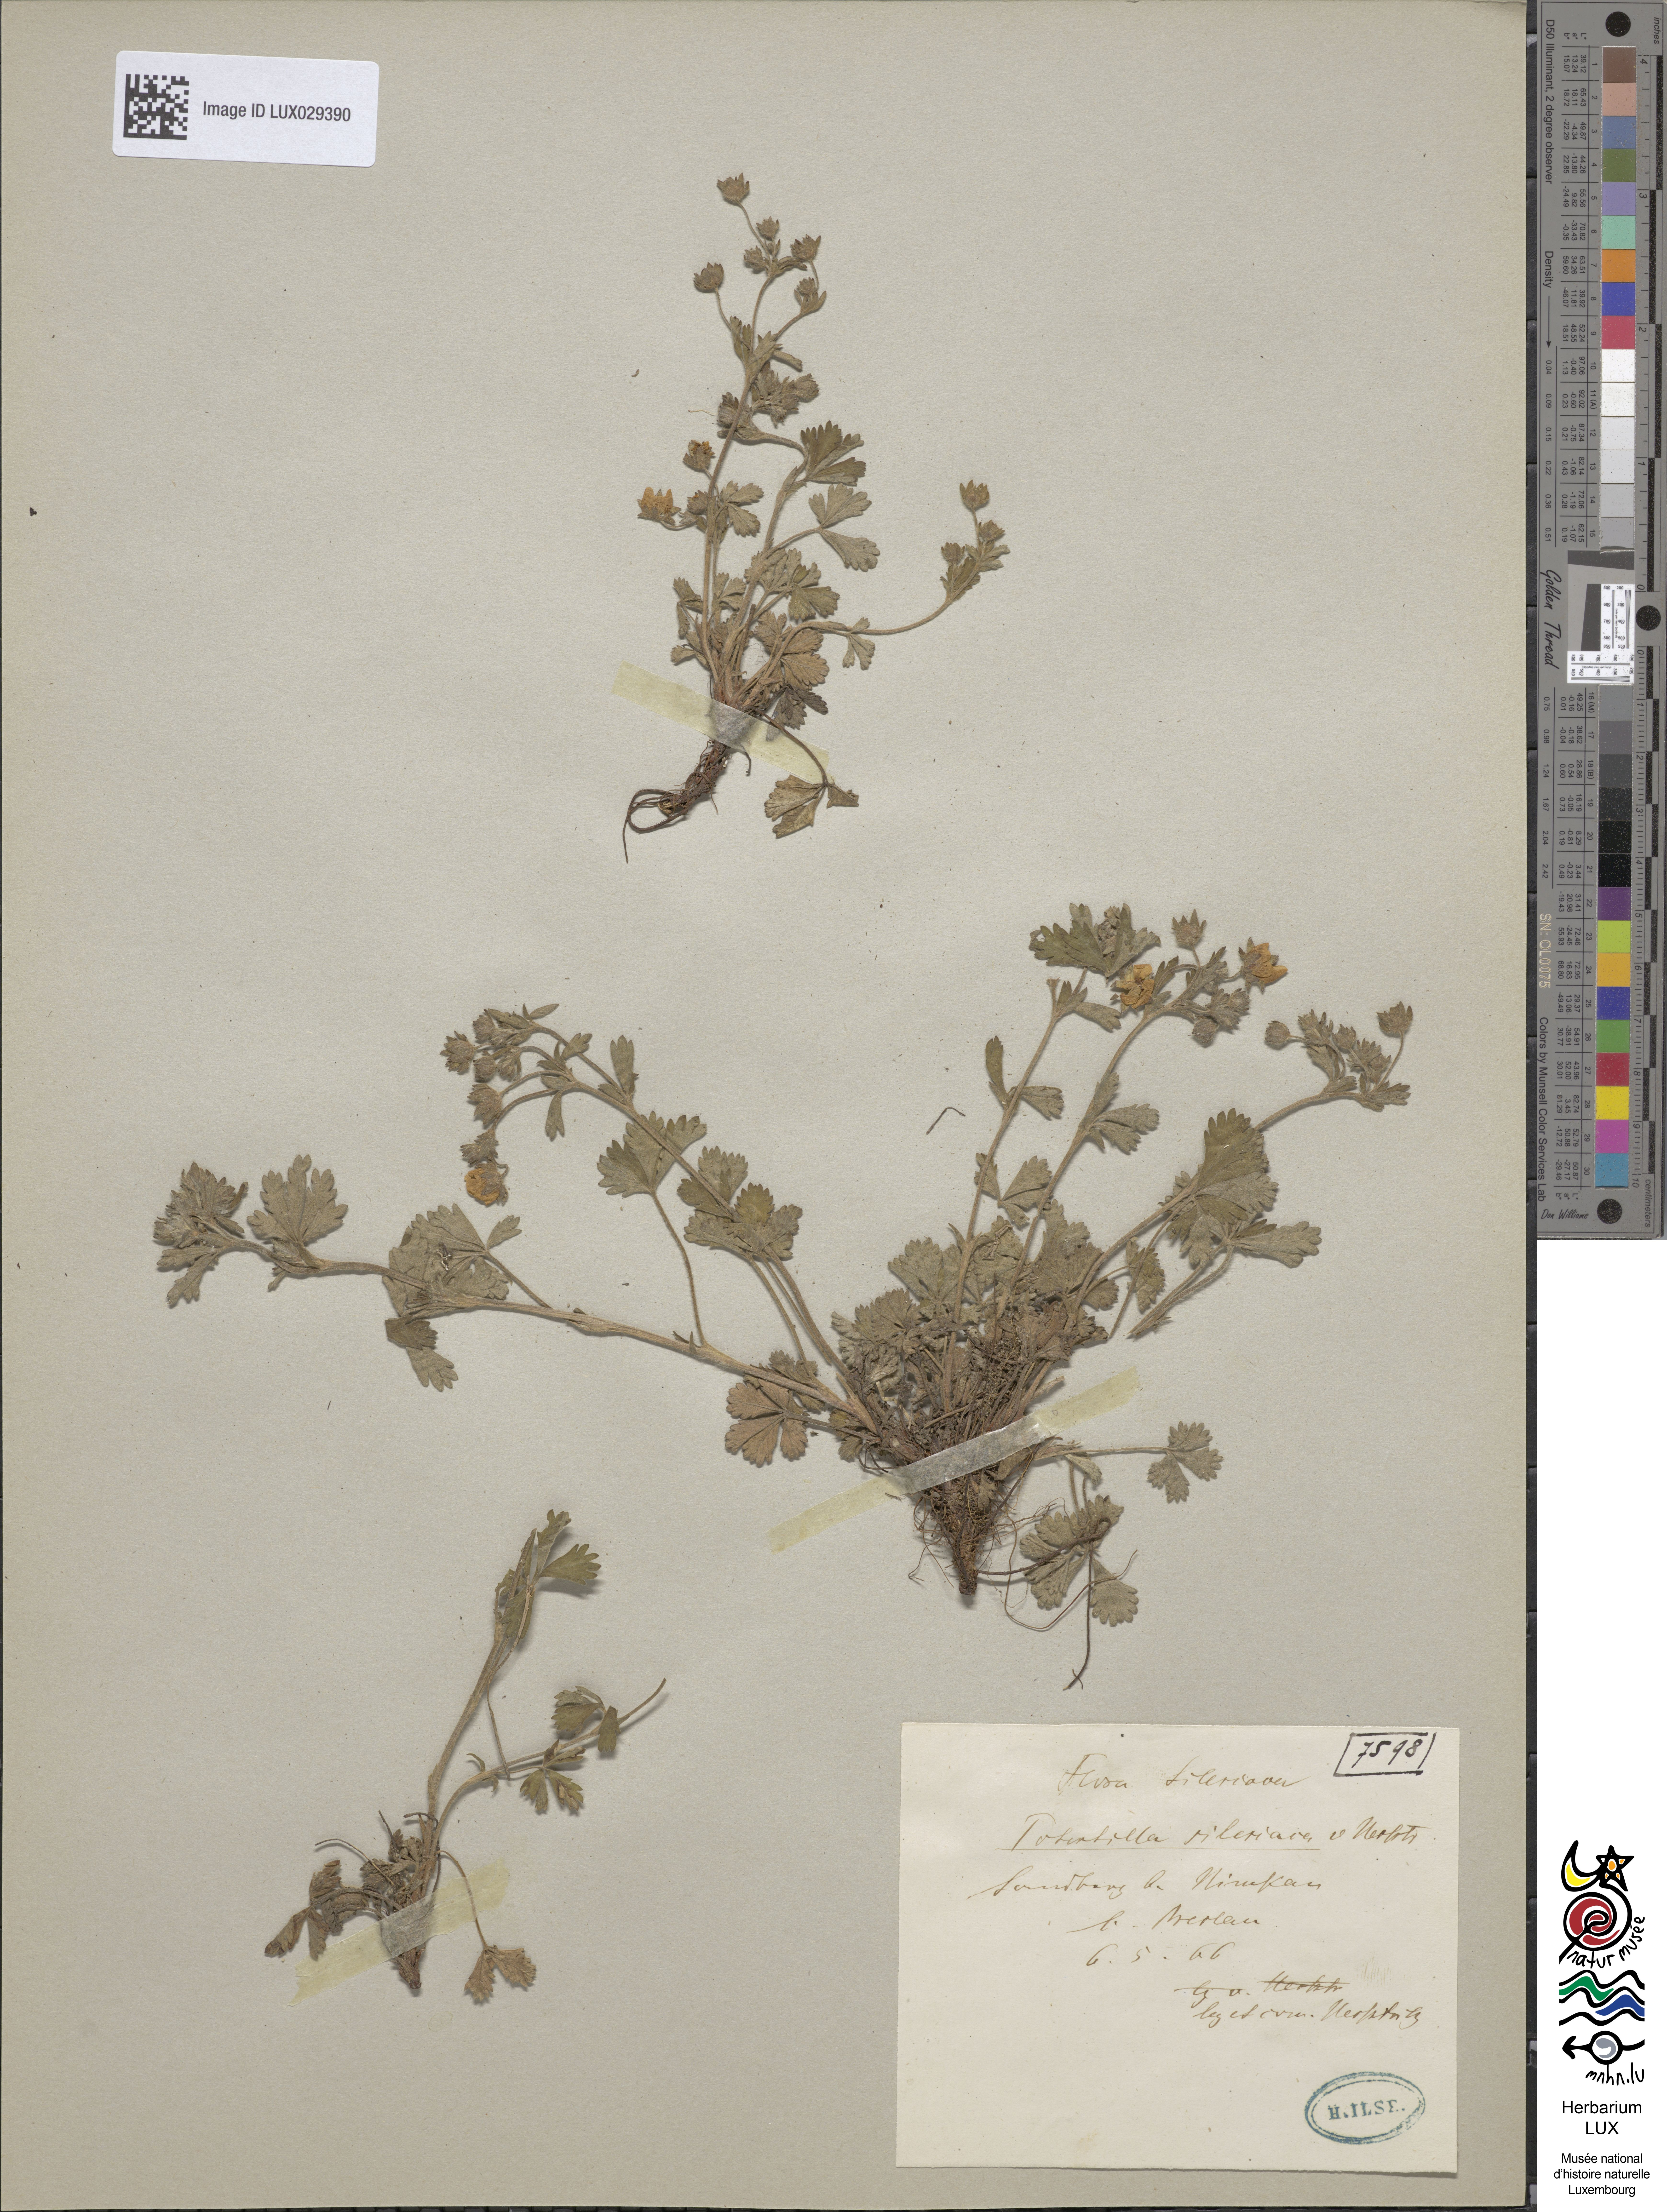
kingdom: Plantae
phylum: Tracheophyta
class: Magnoliopsida
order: Rosales
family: Rosaceae
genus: Potentilla
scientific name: Potentilla silesiaca
